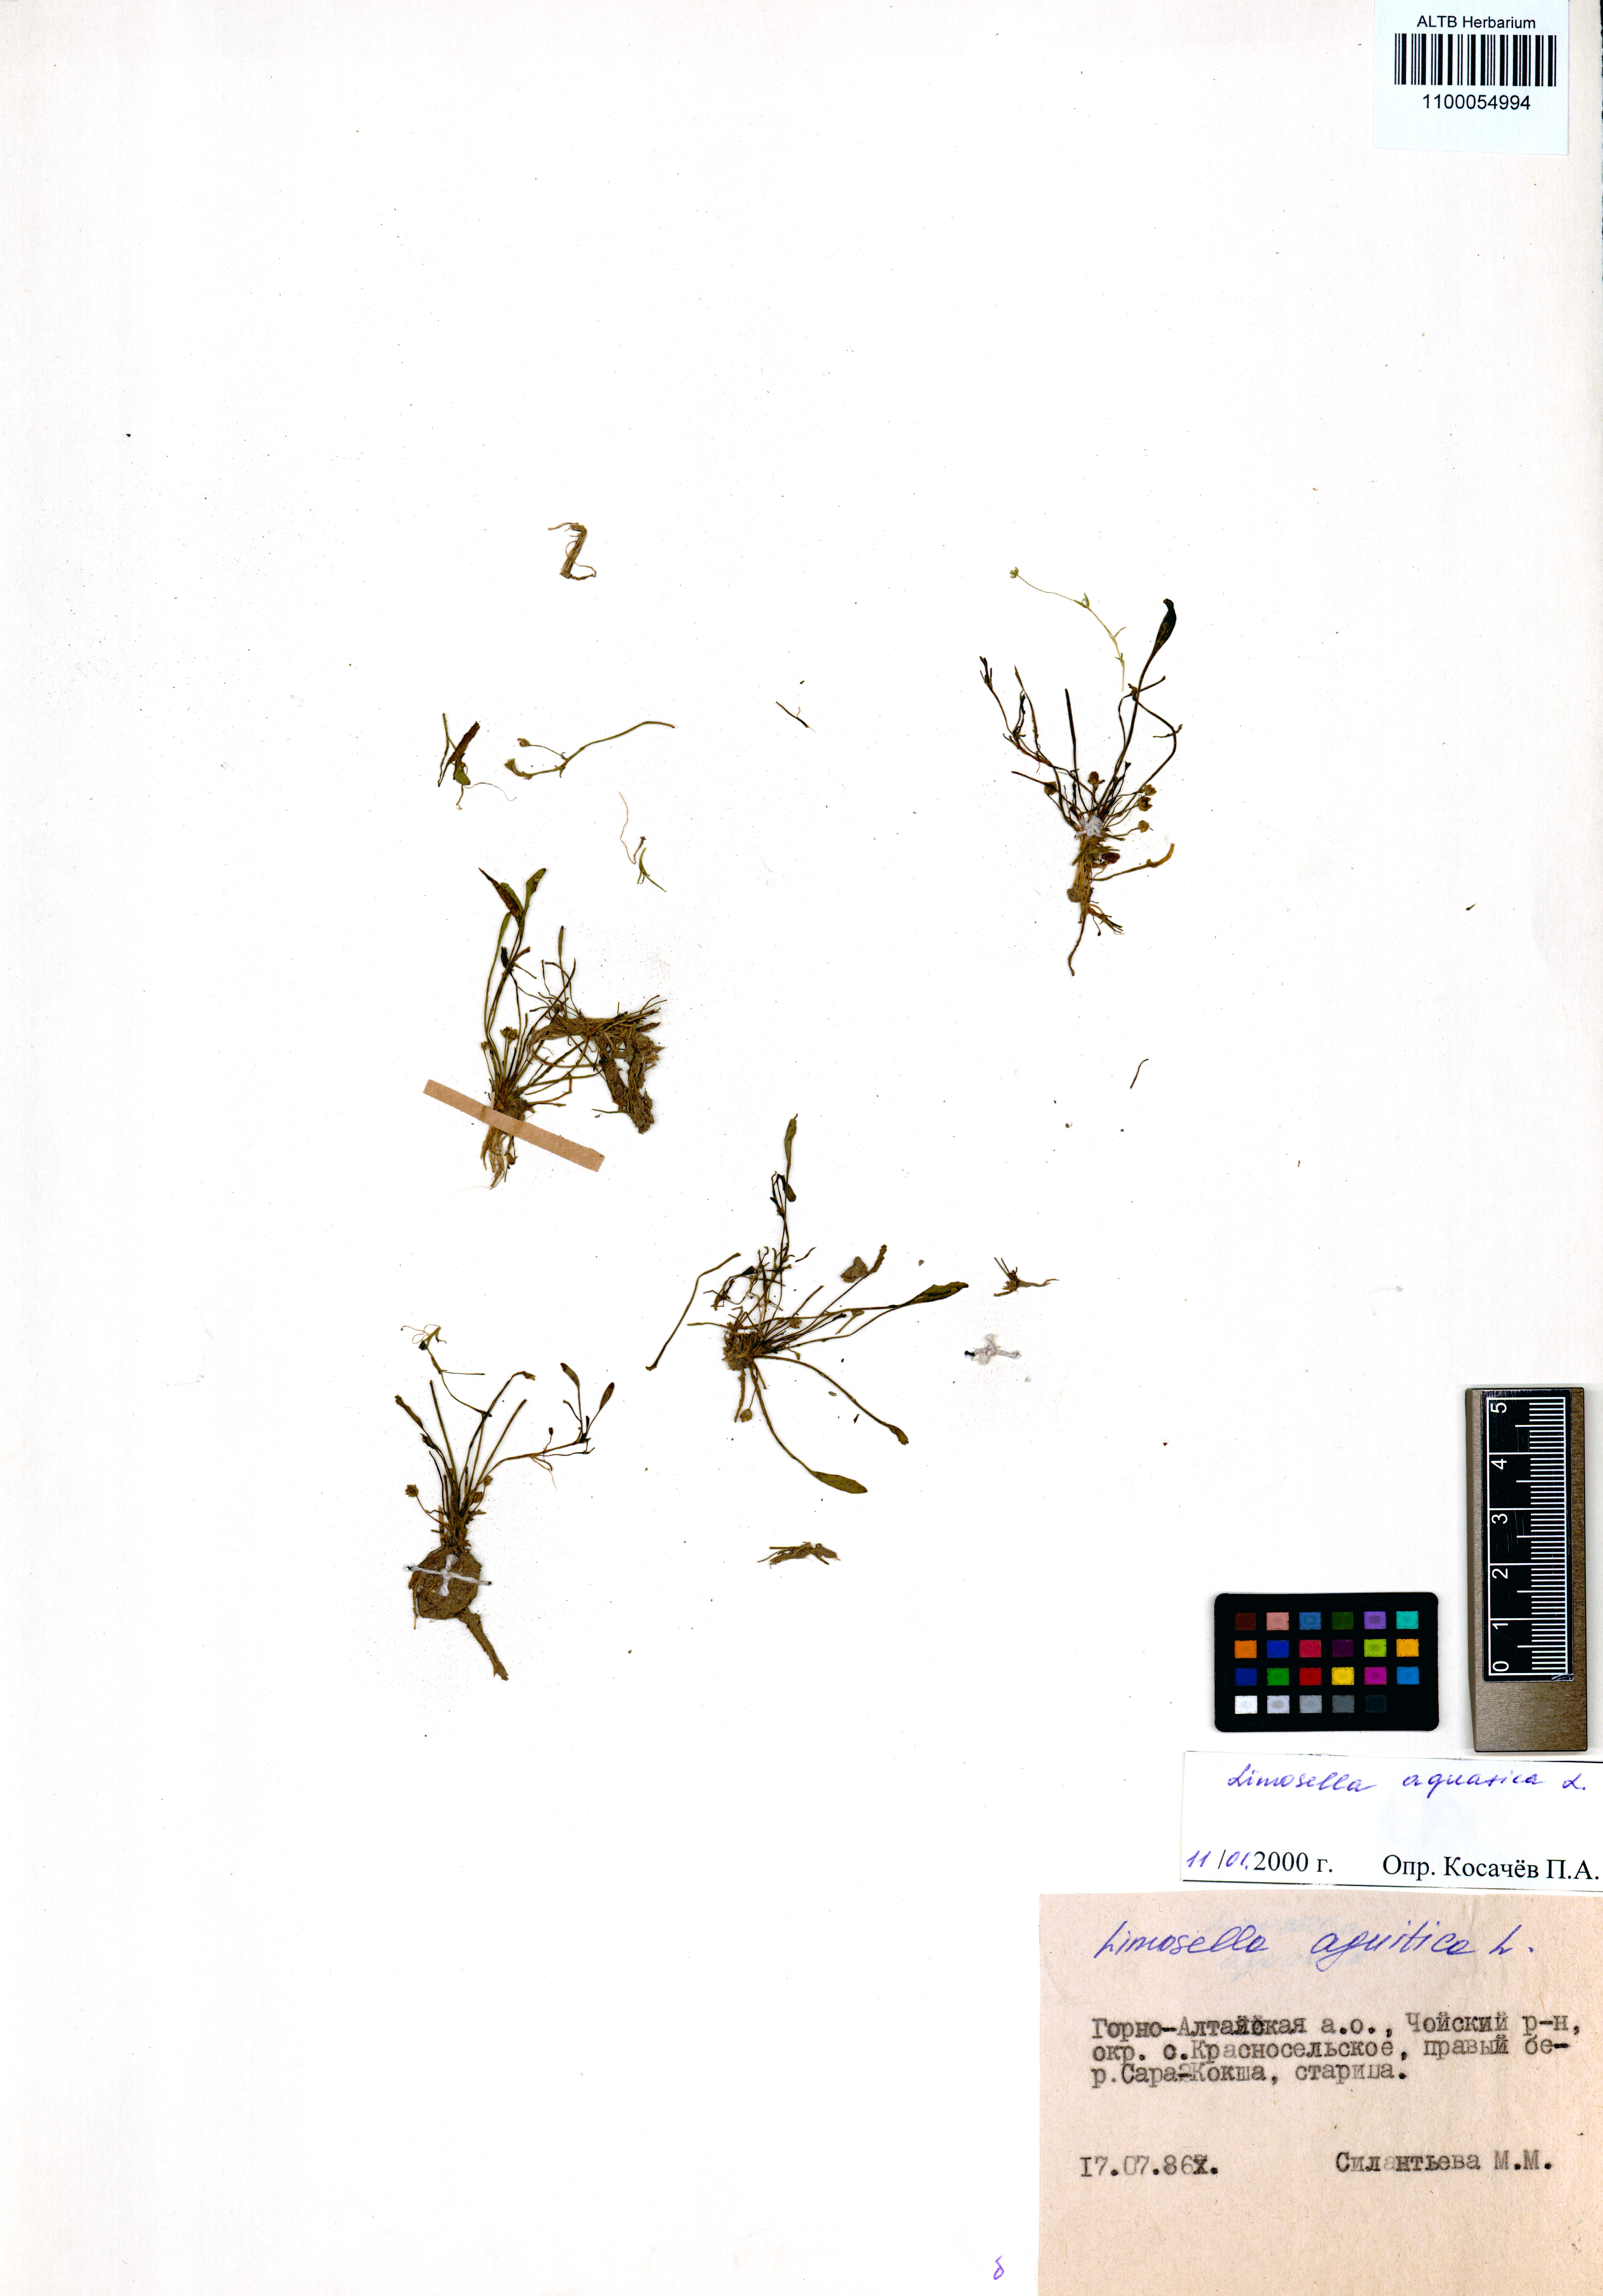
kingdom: Plantae
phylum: Tracheophyta
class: Magnoliopsida
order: Lamiales
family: Scrophulariaceae
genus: Limosella
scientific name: Limosella aquatica
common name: Mudwort
